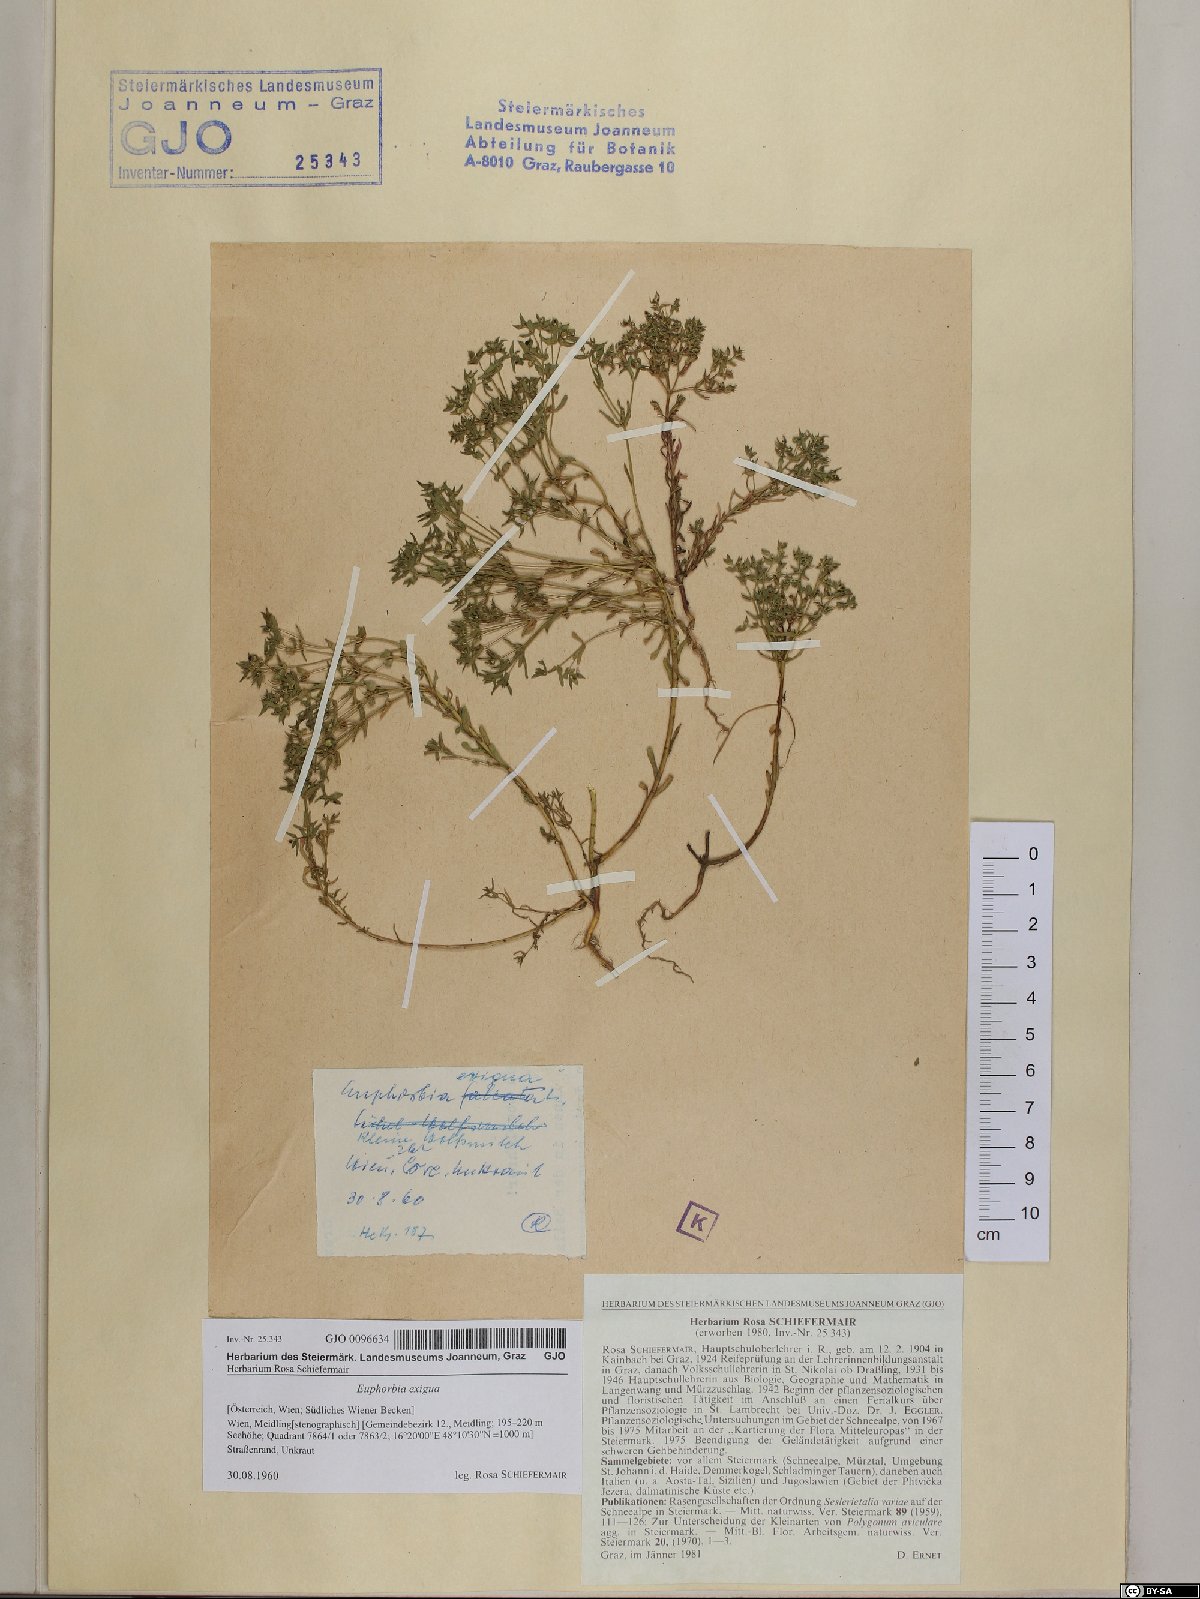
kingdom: Plantae
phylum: Tracheophyta
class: Magnoliopsida
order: Malpighiales
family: Euphorbiaceae
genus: Euphorbia
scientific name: Euphorbia exigua
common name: Dwarf spurge
